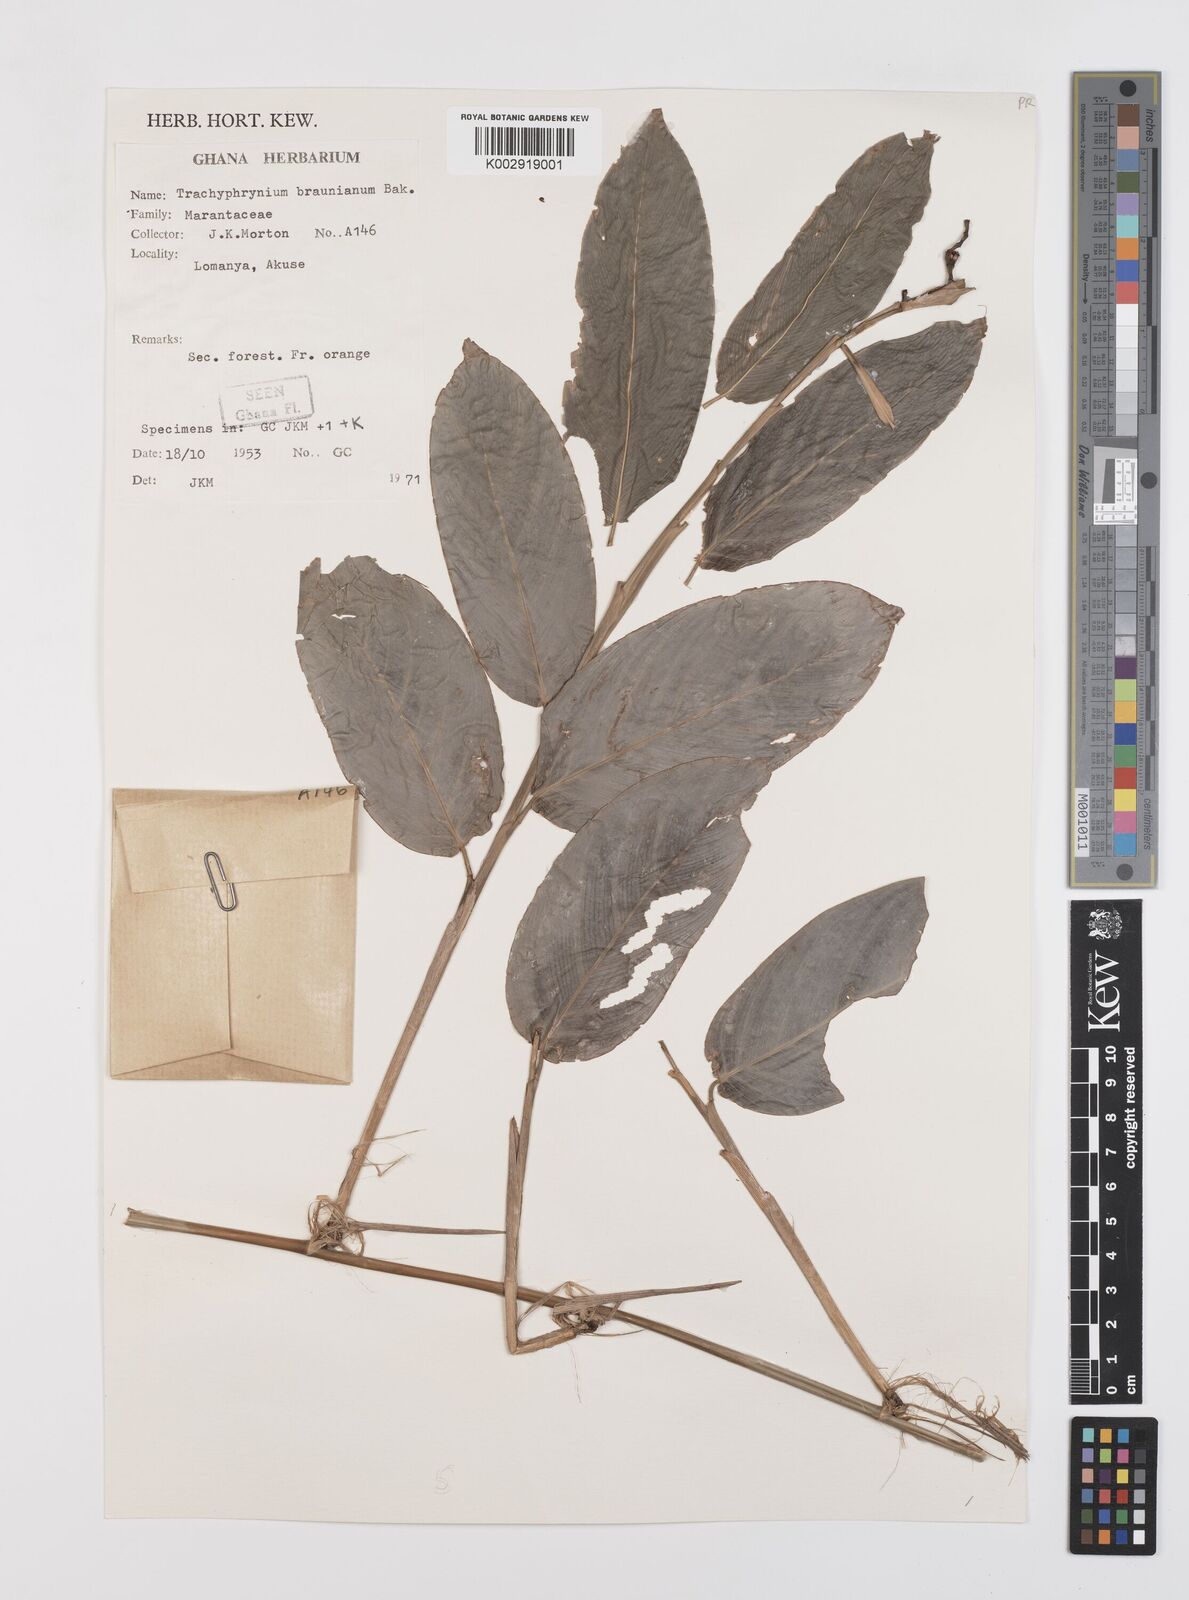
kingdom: Plantae
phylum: Tracheophyta
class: Liliopsida
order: Zingiberales
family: Marantaceae
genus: Trachyphrynium
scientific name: Trachyphrynium braunianum
